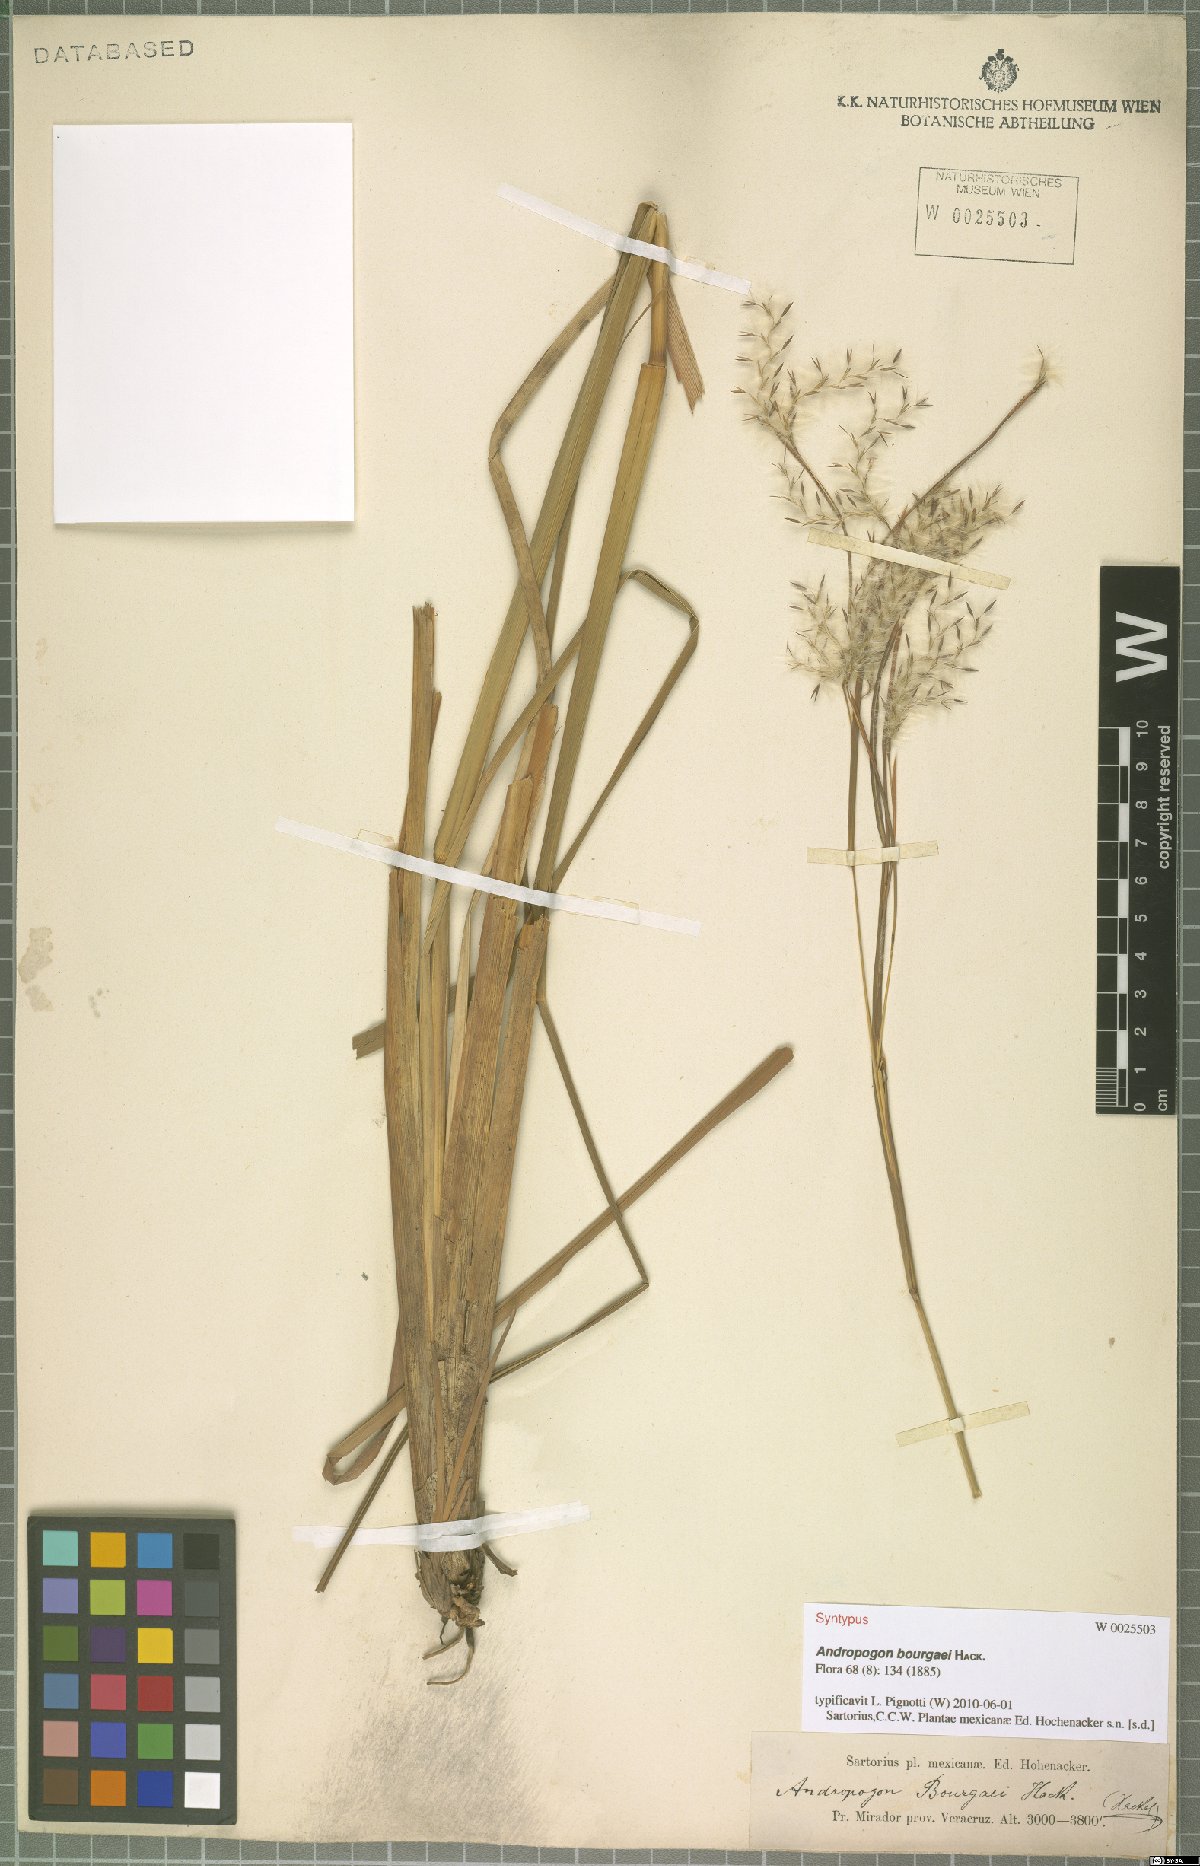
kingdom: Plantae
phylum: Tracheophyta
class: Liliopsida
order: Poales
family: Poaceae
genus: Andropogon
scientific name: Andropogon bourgaei
